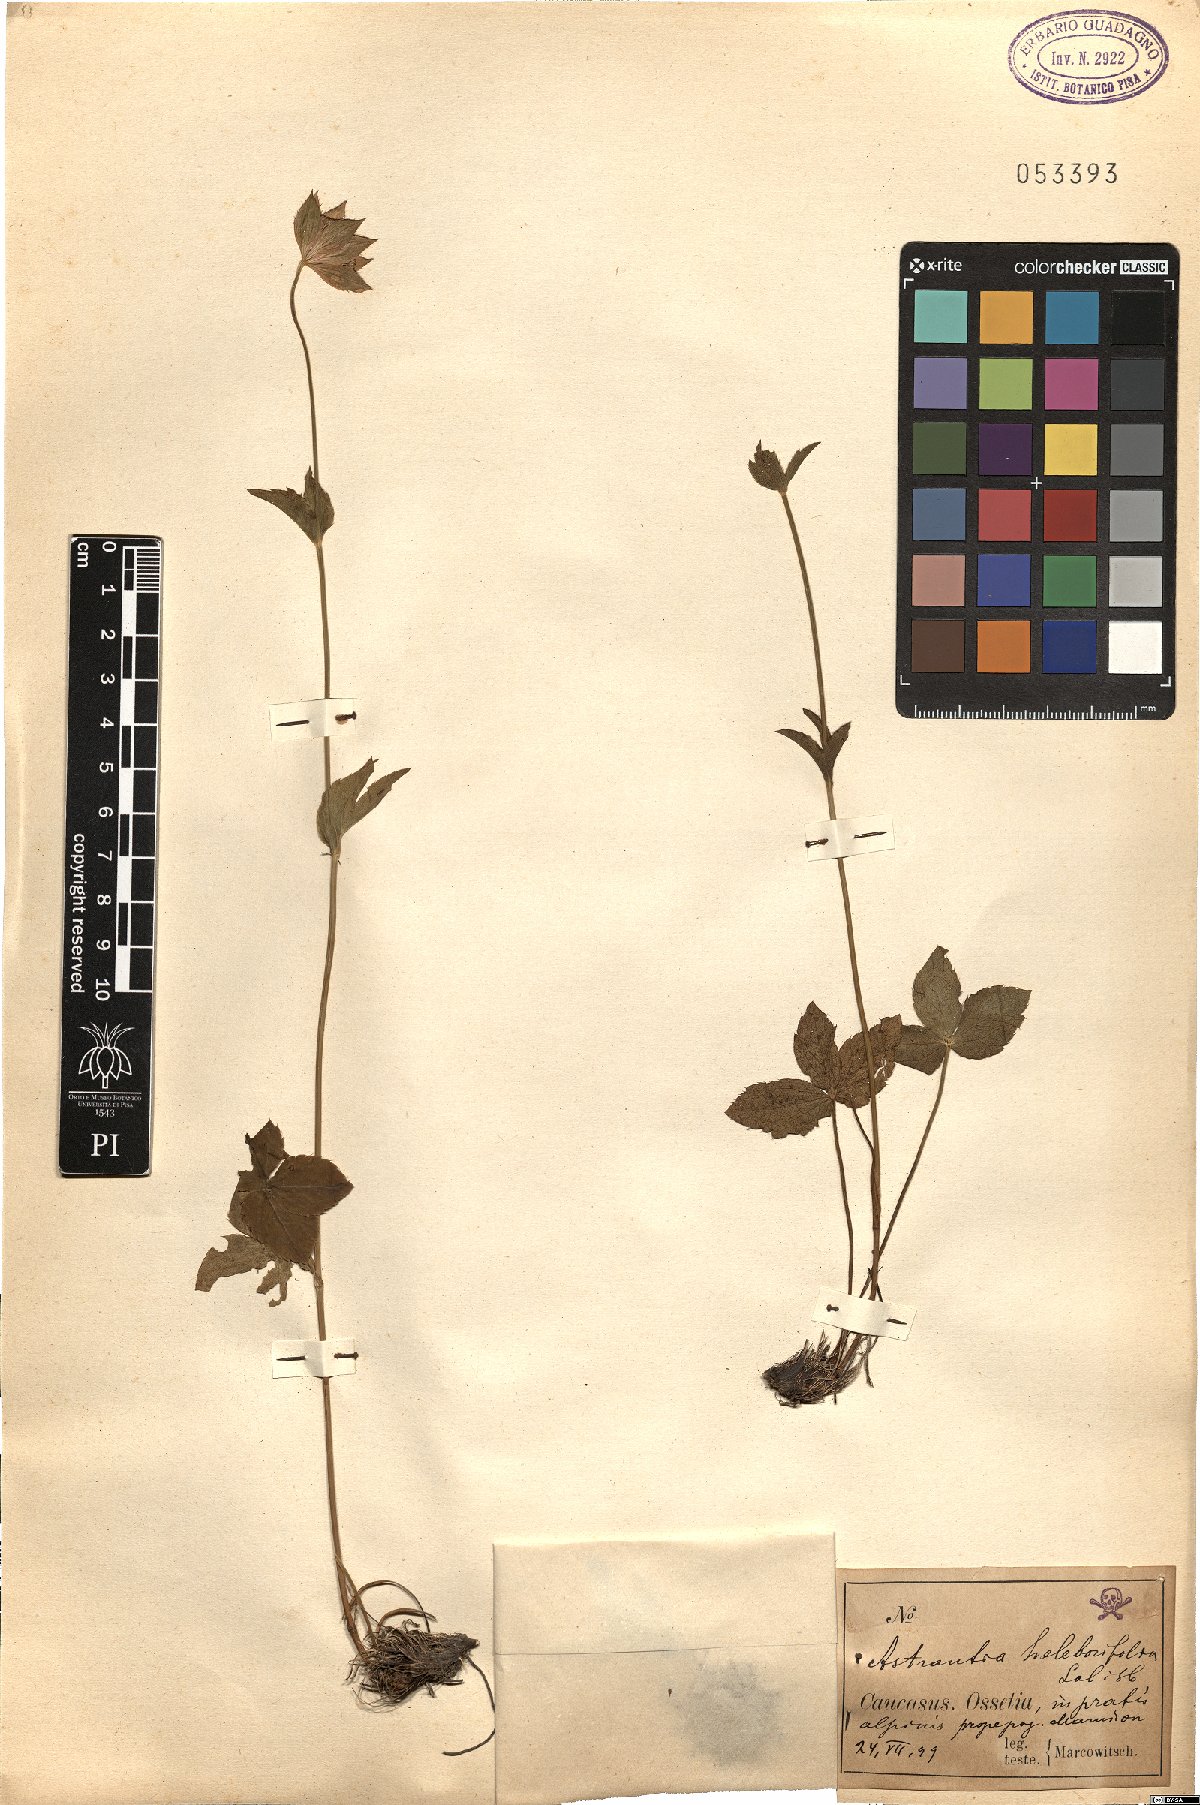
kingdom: Plantae
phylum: Tracheophyta
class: Magnoliopsida
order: Apiales
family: Apiaceae
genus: Astrantia
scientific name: Astrantia maxima
